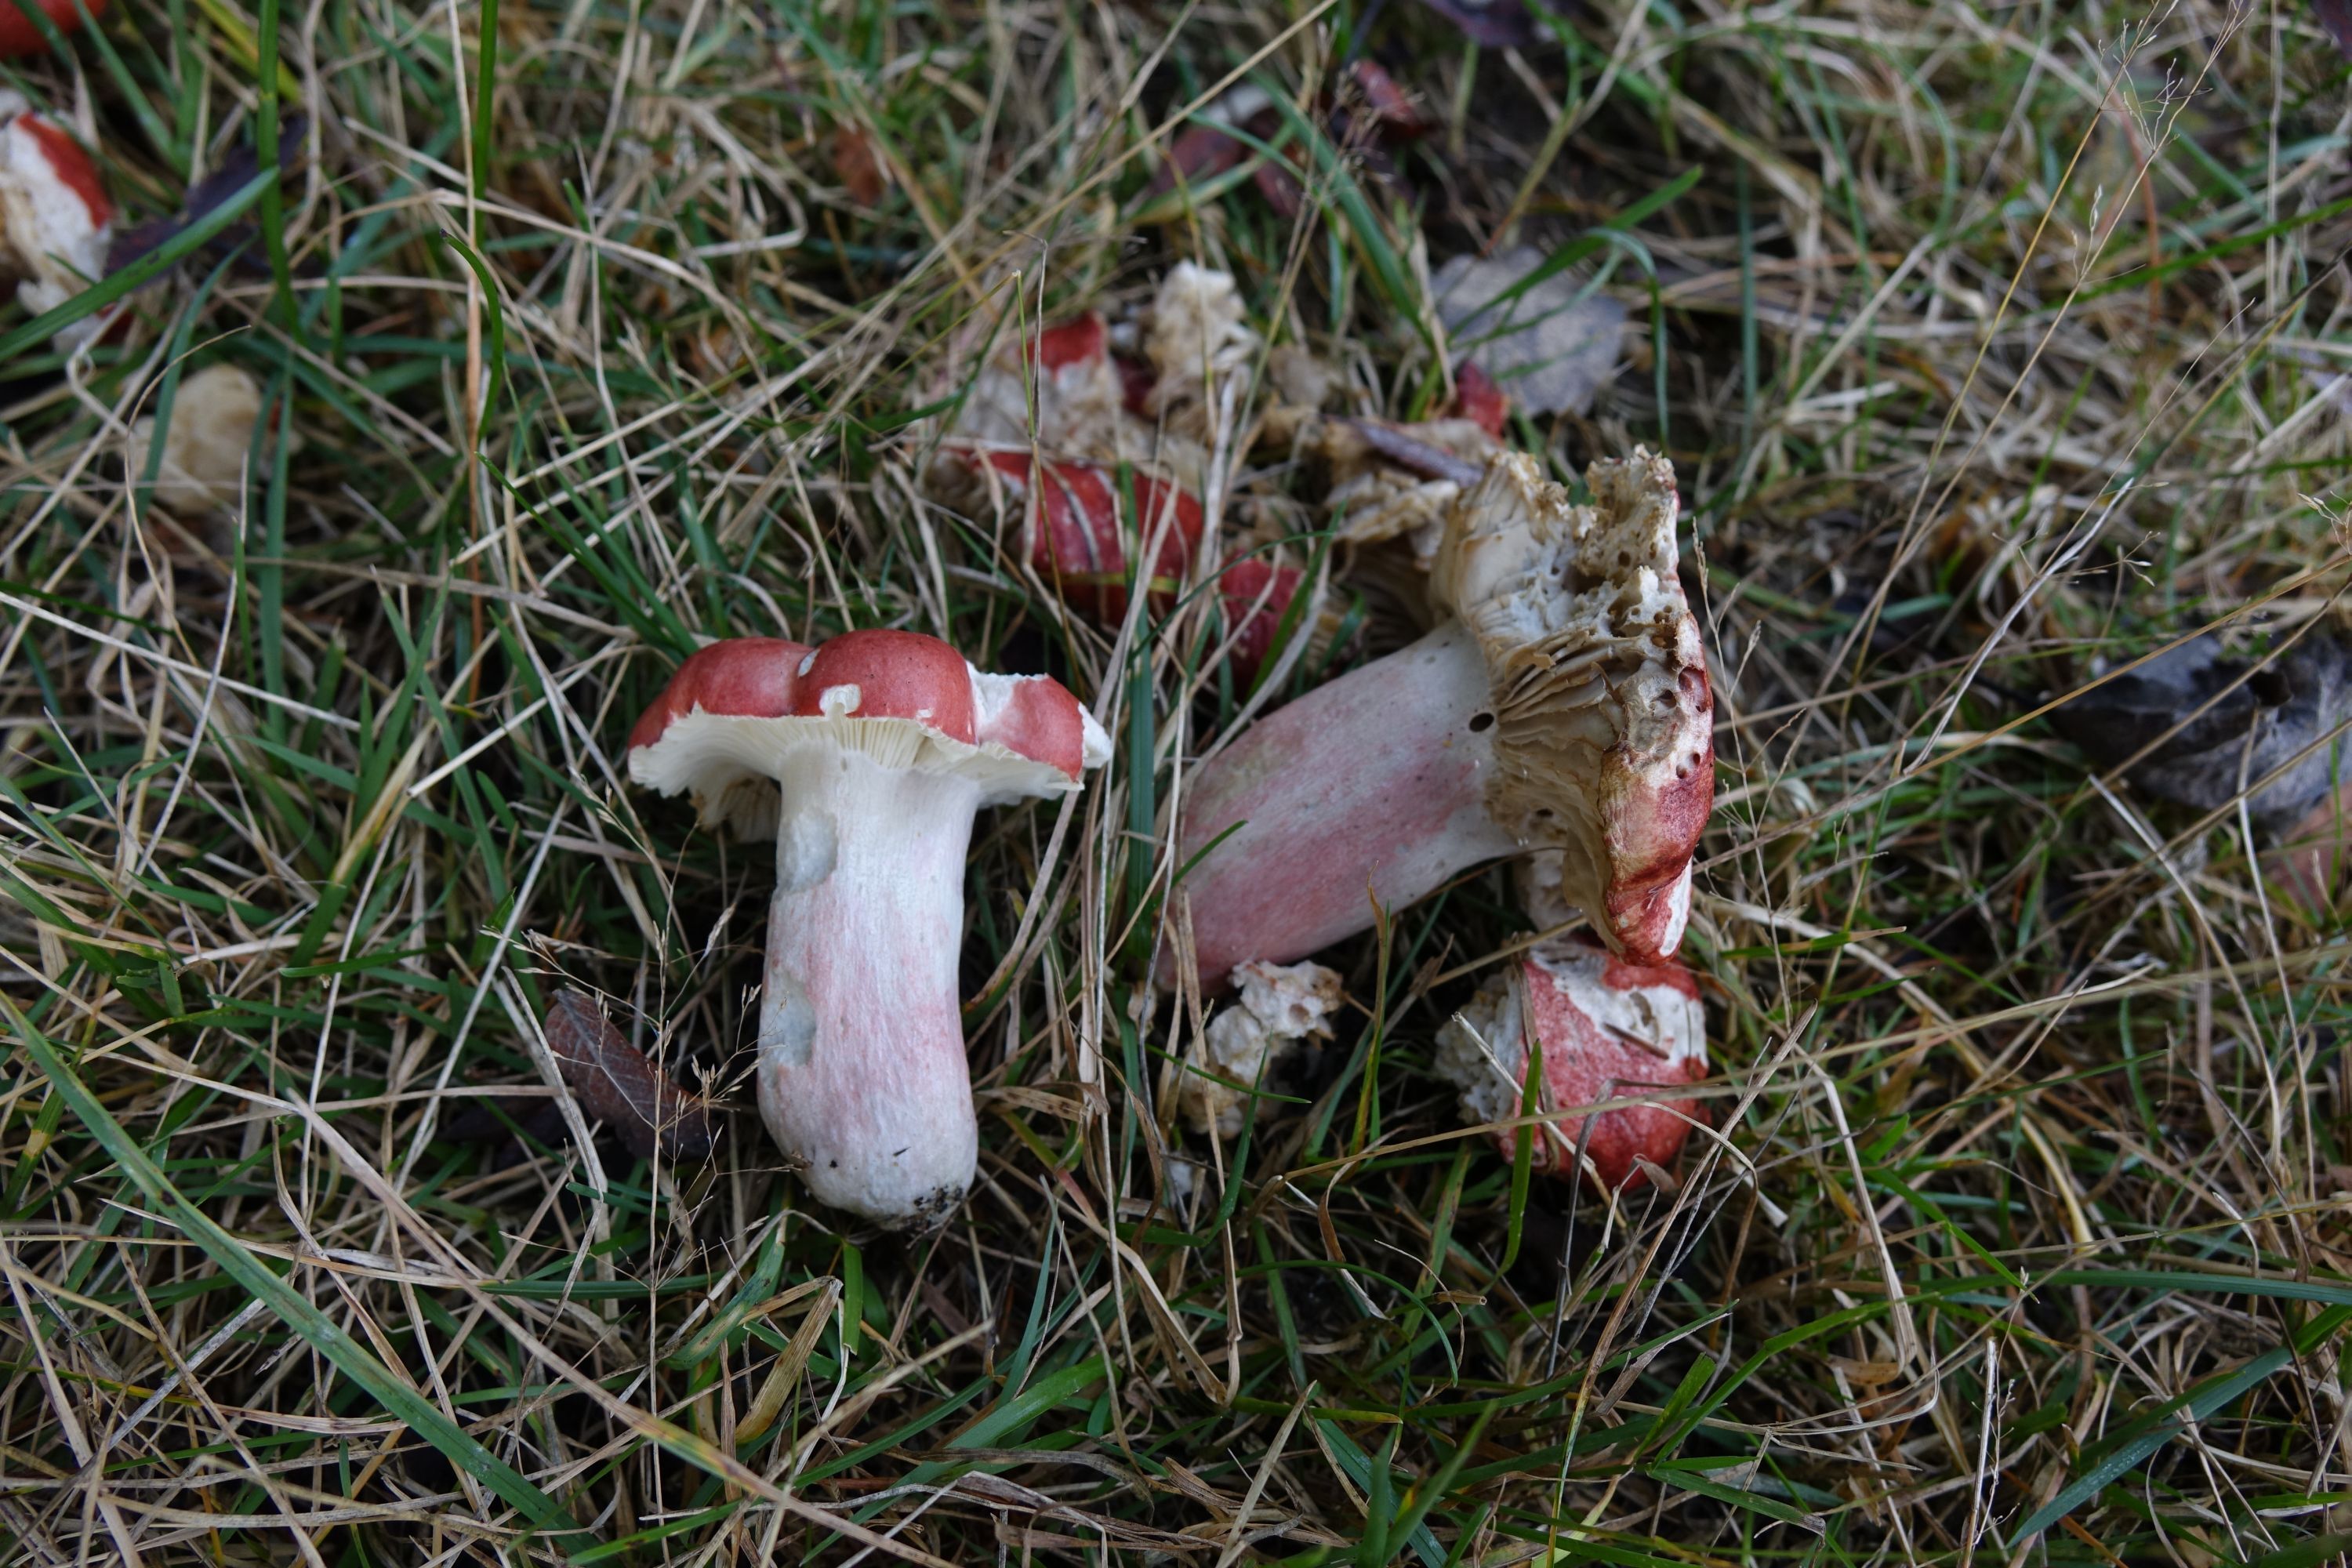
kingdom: Fungi
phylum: Basidiomycota
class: Agaricomycetes
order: Russulales
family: Russulaceae
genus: Russula
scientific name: Russula sanguinea
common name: Bloody brittlegill
